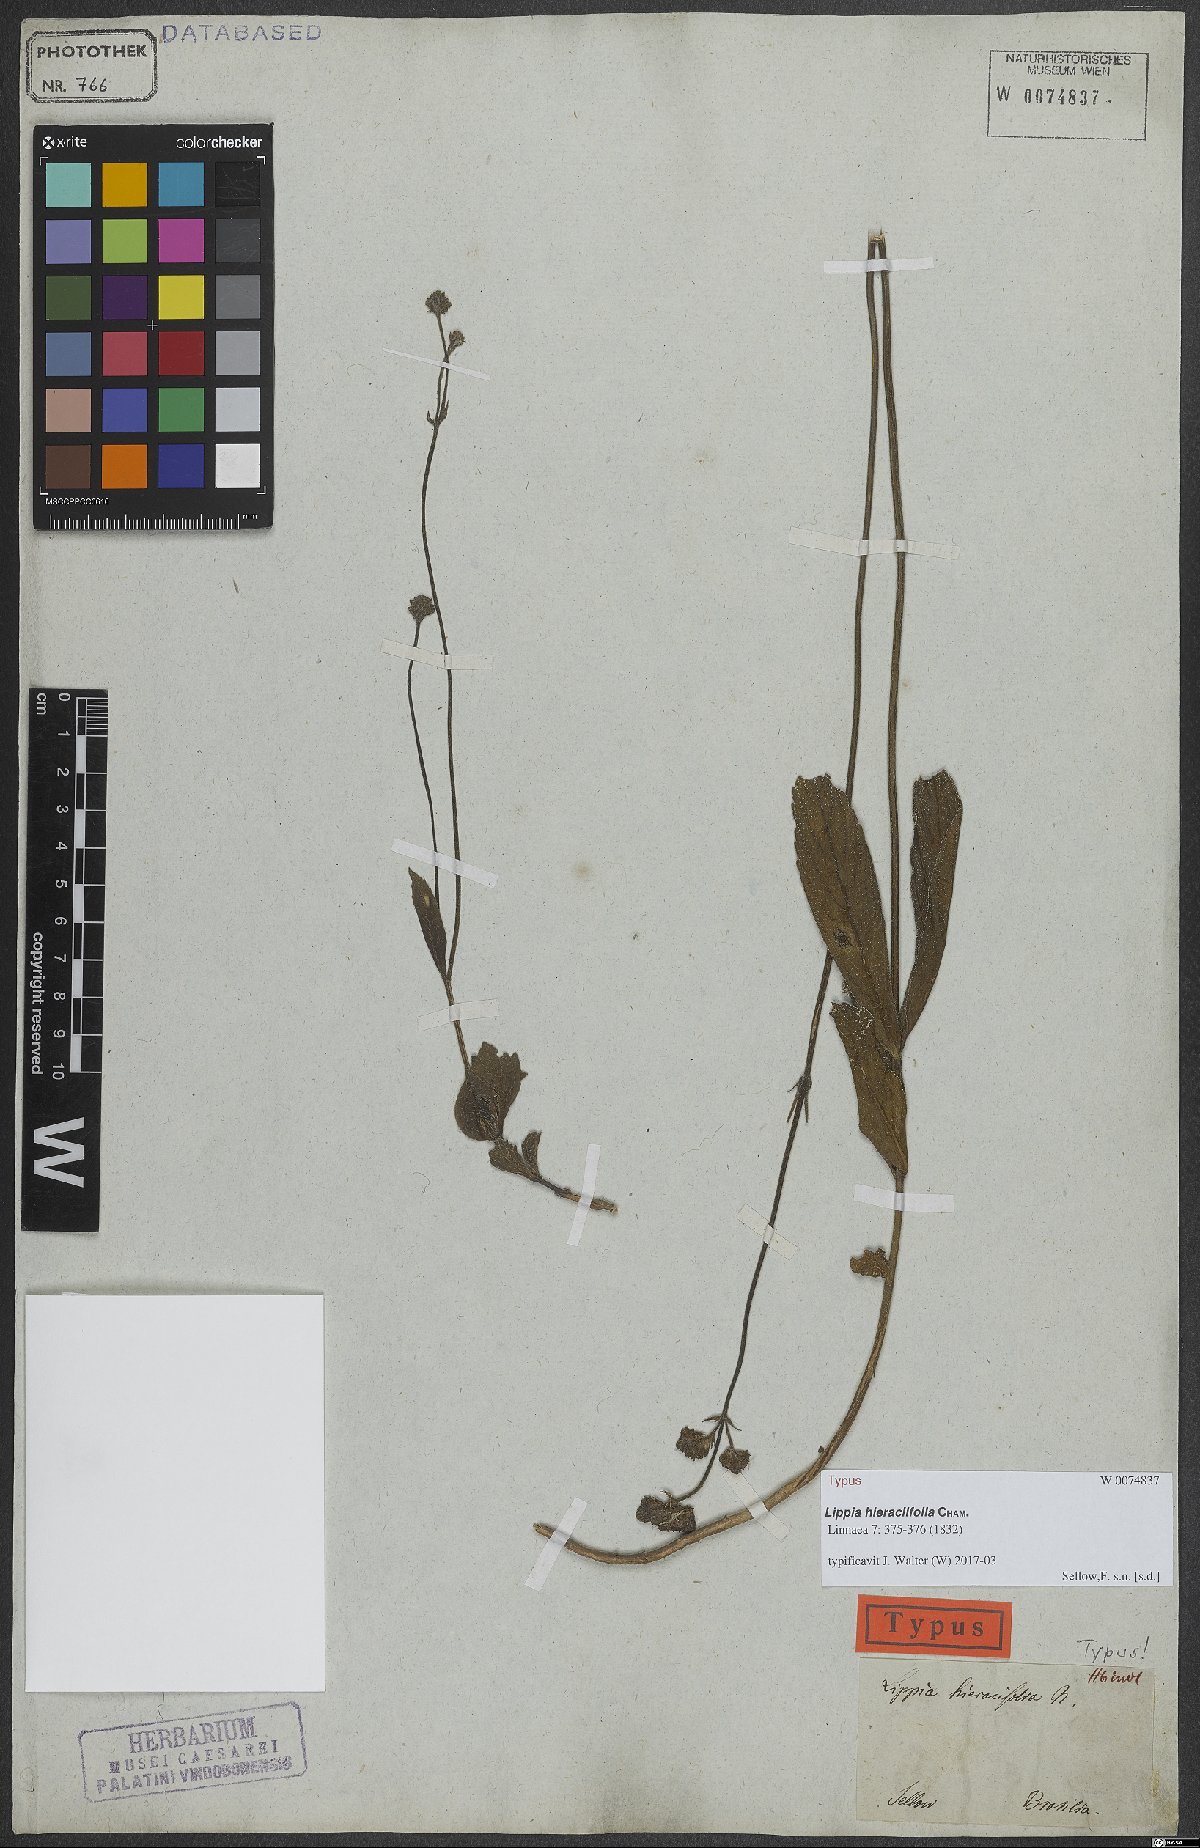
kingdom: Plantae
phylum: Tracheophyta
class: Magnoliopsida
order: Lamiales
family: Verbenaceae
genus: Lippia
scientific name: Lippia hieraciifolia
